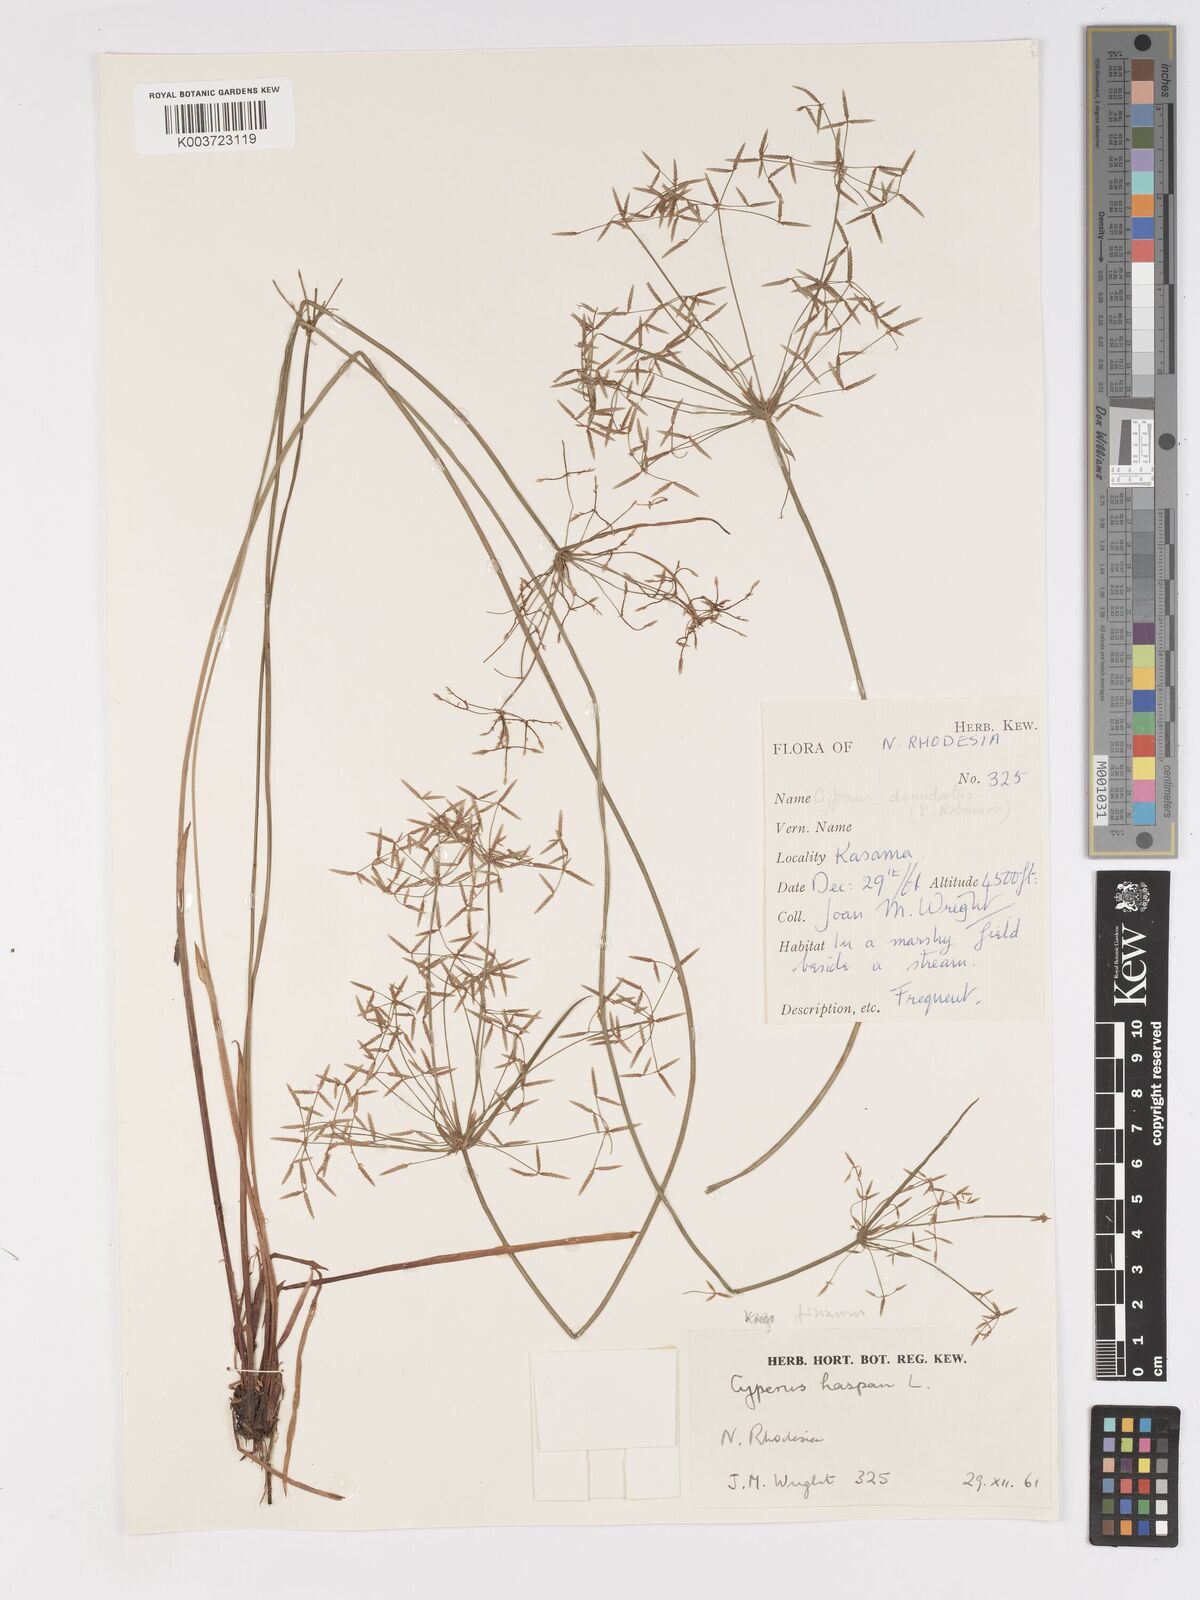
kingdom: Plantae
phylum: Tracheophyta
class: Liliopsida
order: Poales
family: Cyperaceae
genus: Cyperus
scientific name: Cyperus haspan
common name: Haspan flatsedge
